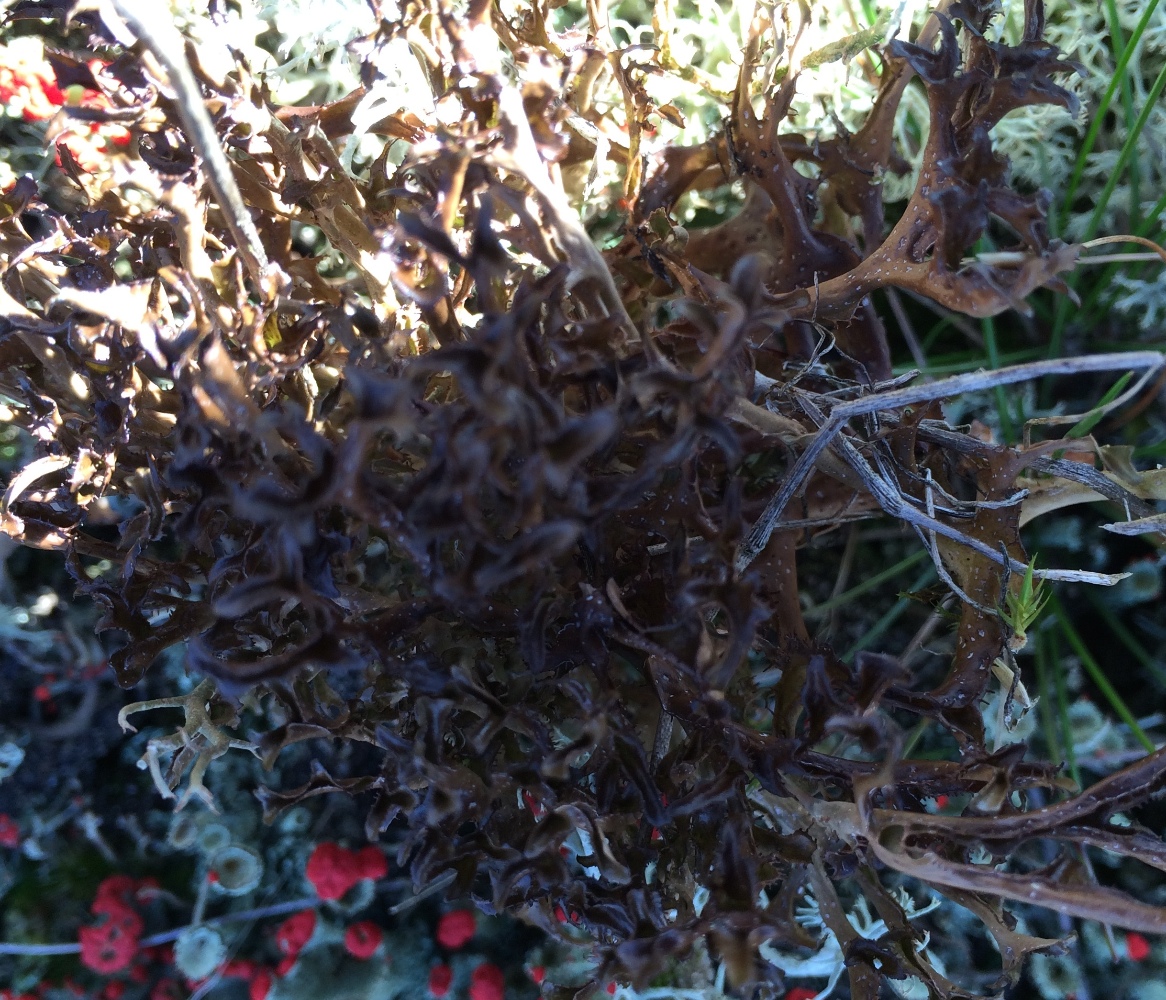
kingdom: Fungi
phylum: Ascomycota
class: Lecanoromycetes
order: Lecanorales
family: Parmeliaceae
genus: Cetraria
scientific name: Cetraria islandica
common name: islandsk kruslav
